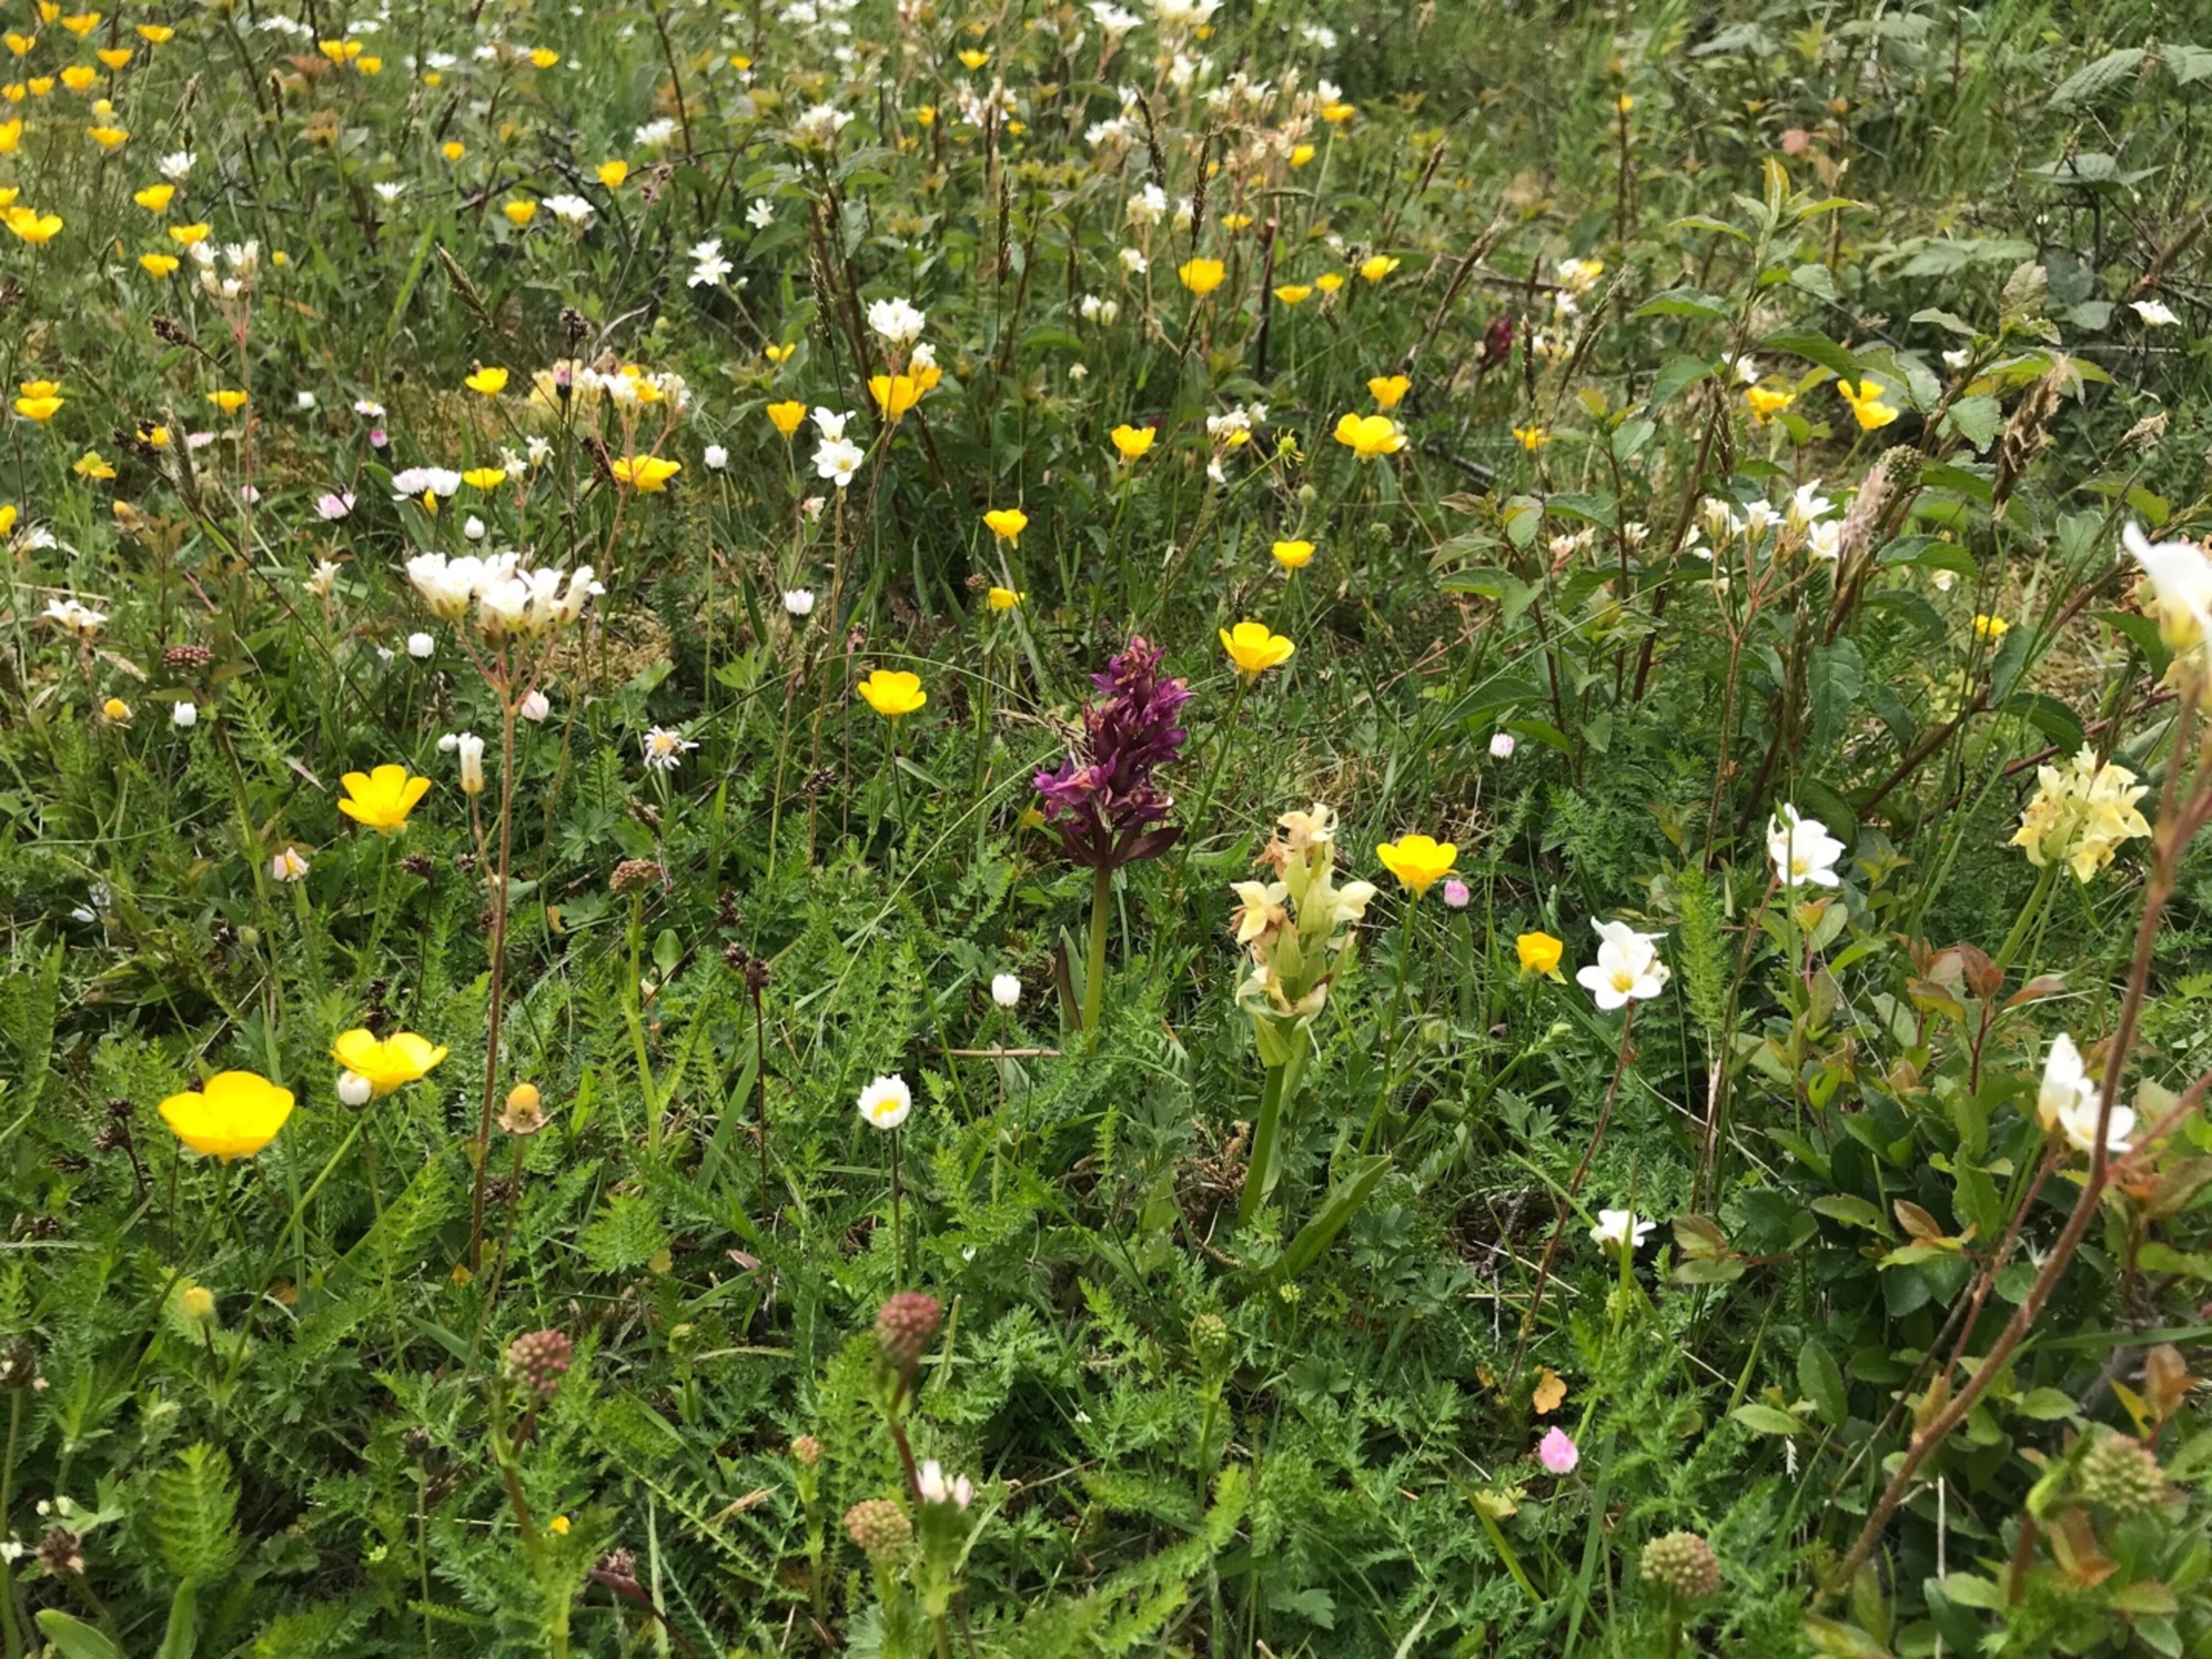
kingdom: Plantae
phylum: Tracheophyta
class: Liliopsida
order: Asparagales
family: Orchidaceae
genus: Dactylorhiza
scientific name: Dactylorhiza sambucina
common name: Hylde-gøgeurt
